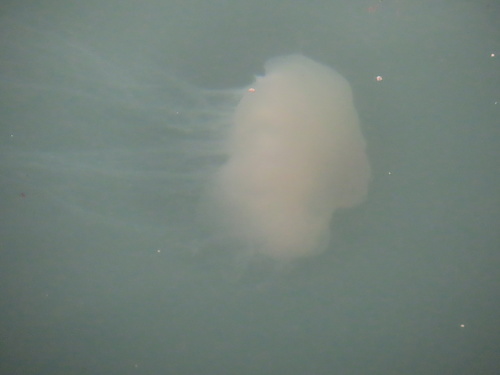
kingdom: Animalia
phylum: Cnidaria
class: Scyphozoa
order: Semaeostomeae
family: Cyaneidae
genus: Cyanea
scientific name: Cyanea nozakii
